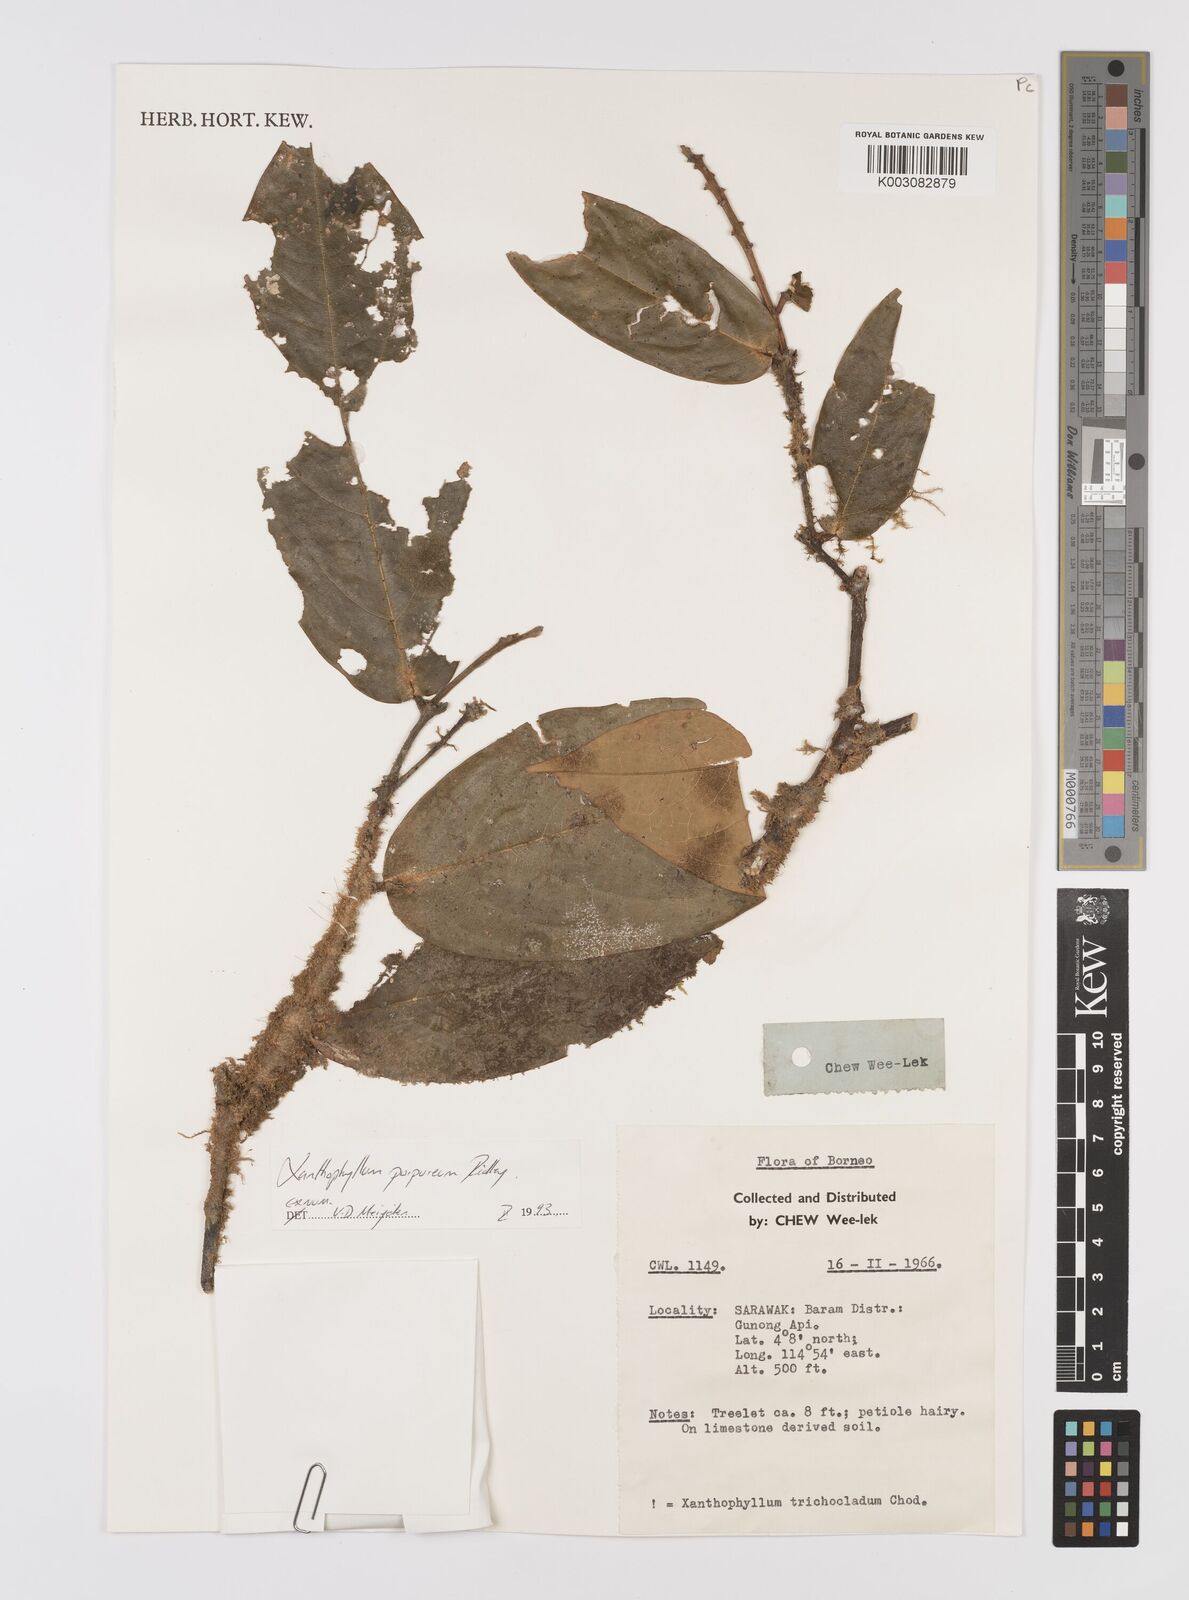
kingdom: Plantae
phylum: Tracheophyta
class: Magnoliopsida
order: Fabales
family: Polygalaceae
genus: Xanthophyllum
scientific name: Xanthophyllum purpureum
